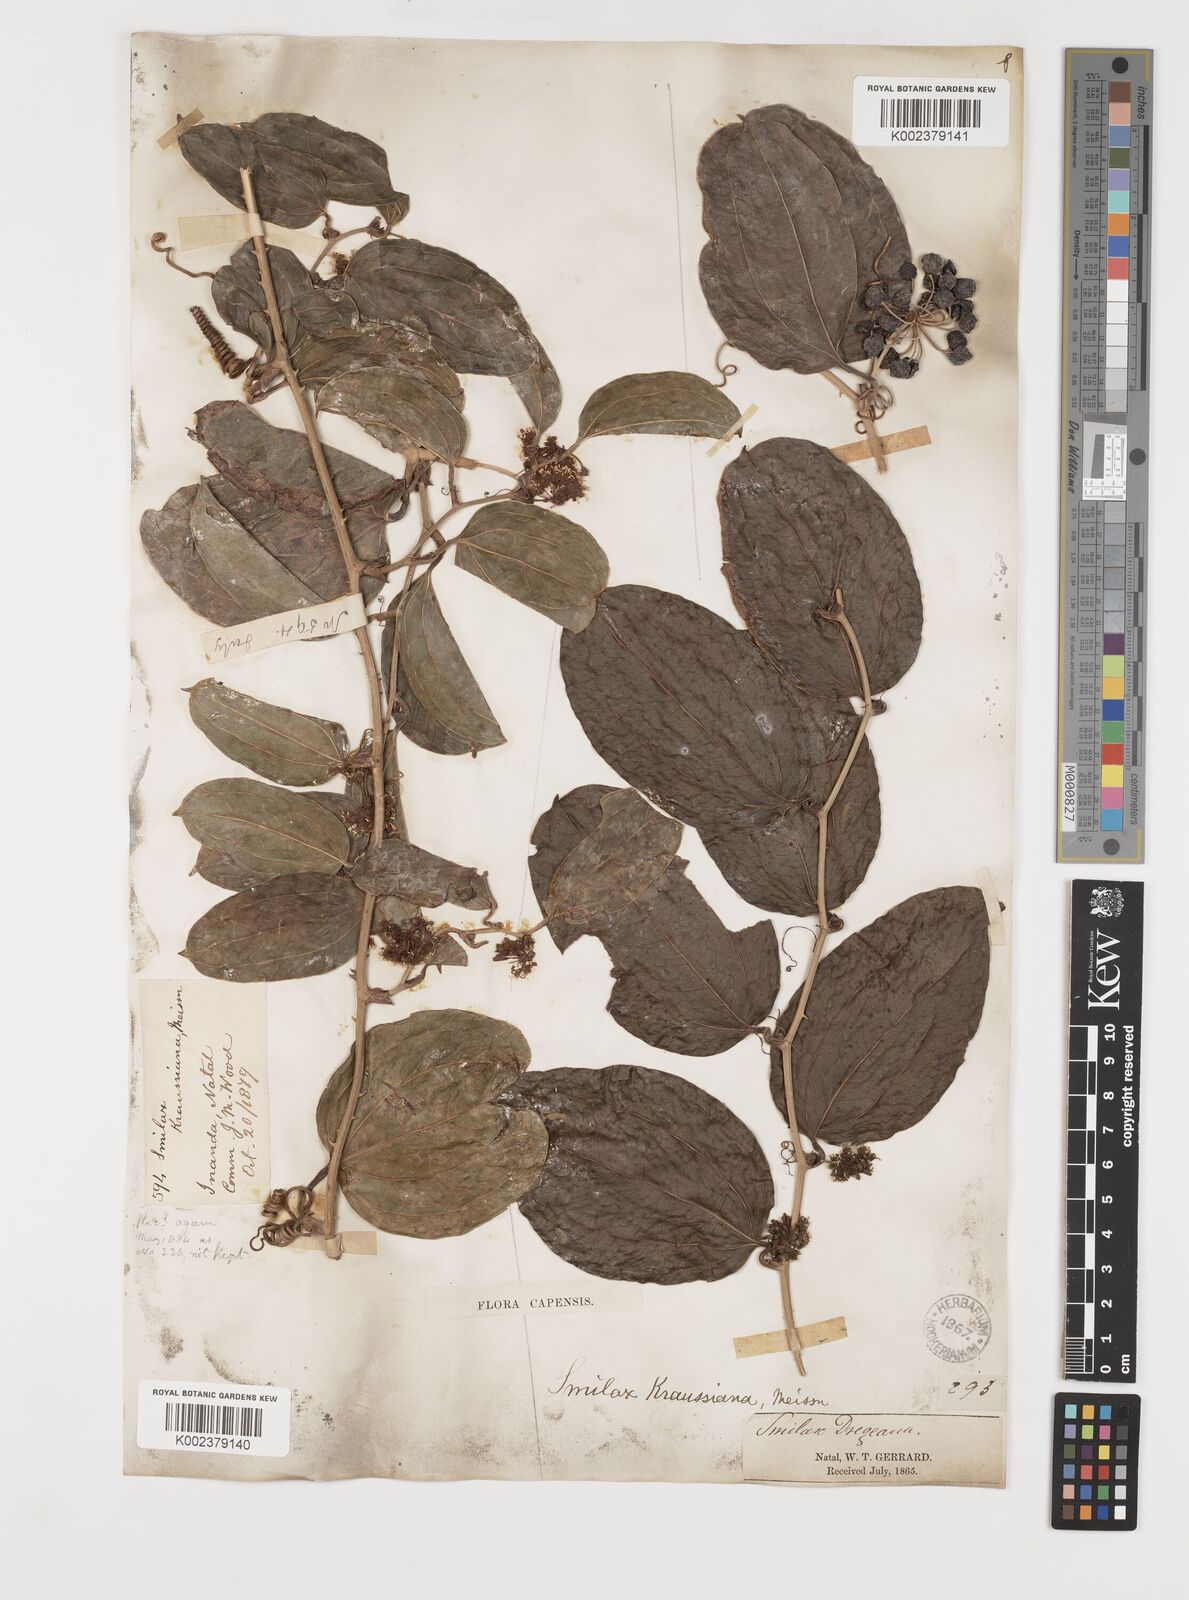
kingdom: Plantae
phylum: Tracheophyta
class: Liliopsida
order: Liliales
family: Smilacaceae
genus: Smilax
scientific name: Smilax anceps
